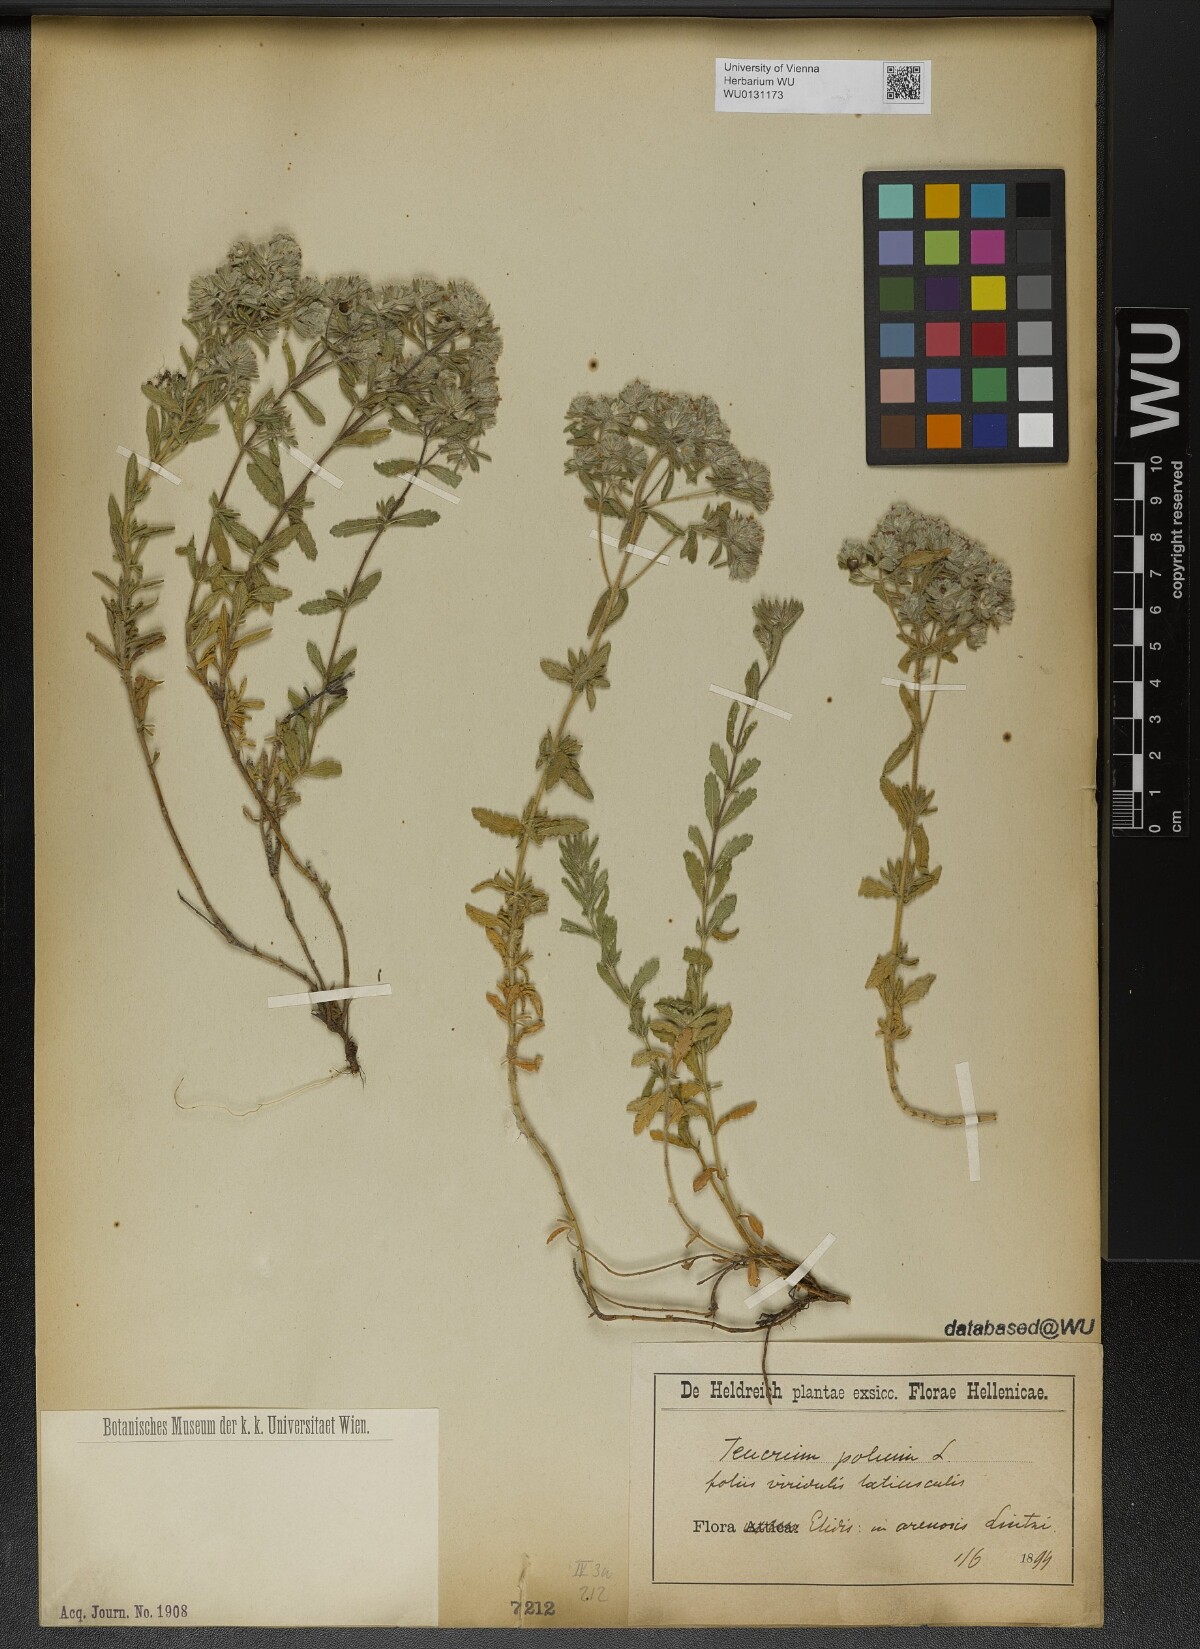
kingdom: Plantae
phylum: Tracheophyta
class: Magnoliopsida
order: Lamiales
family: Lamiaceae
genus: Teucrium
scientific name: Teucrium polium
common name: Poley
